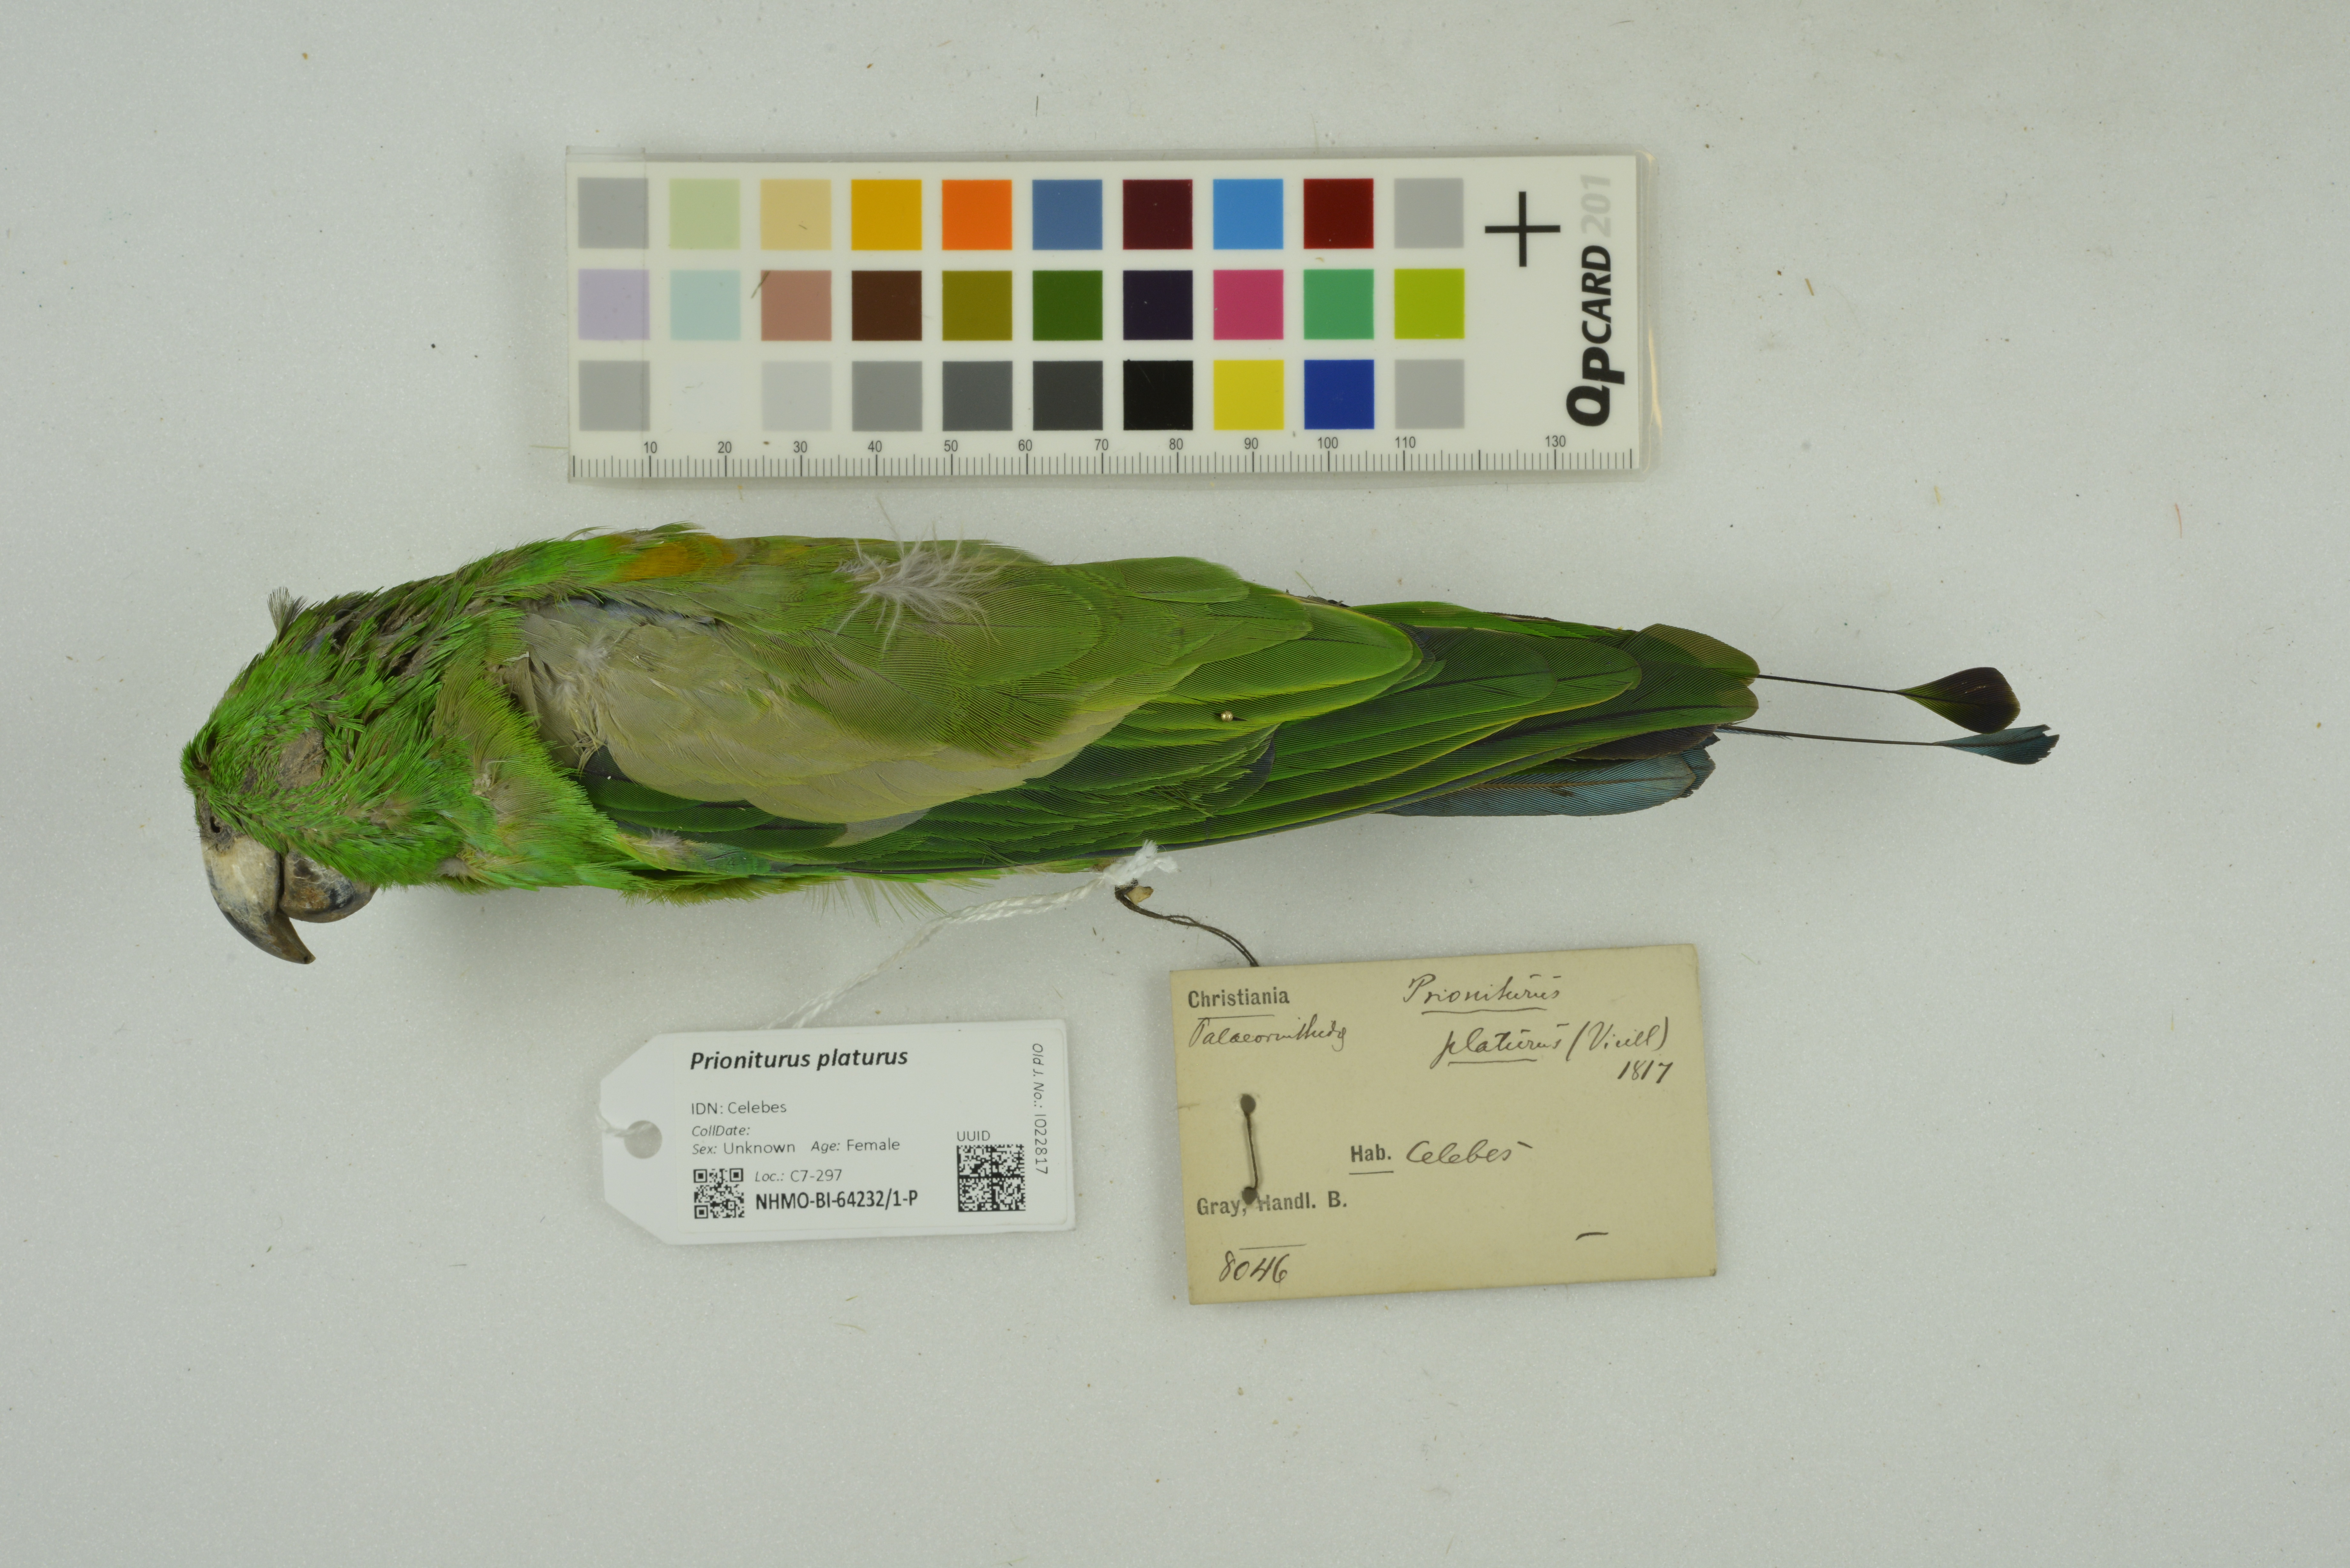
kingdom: Animalia
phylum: Chordata
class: Aves
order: Psittaciformes
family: Psittacidae
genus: Prioniturus
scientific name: Prioniturus platurus
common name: Golden-mantled racket-tail
